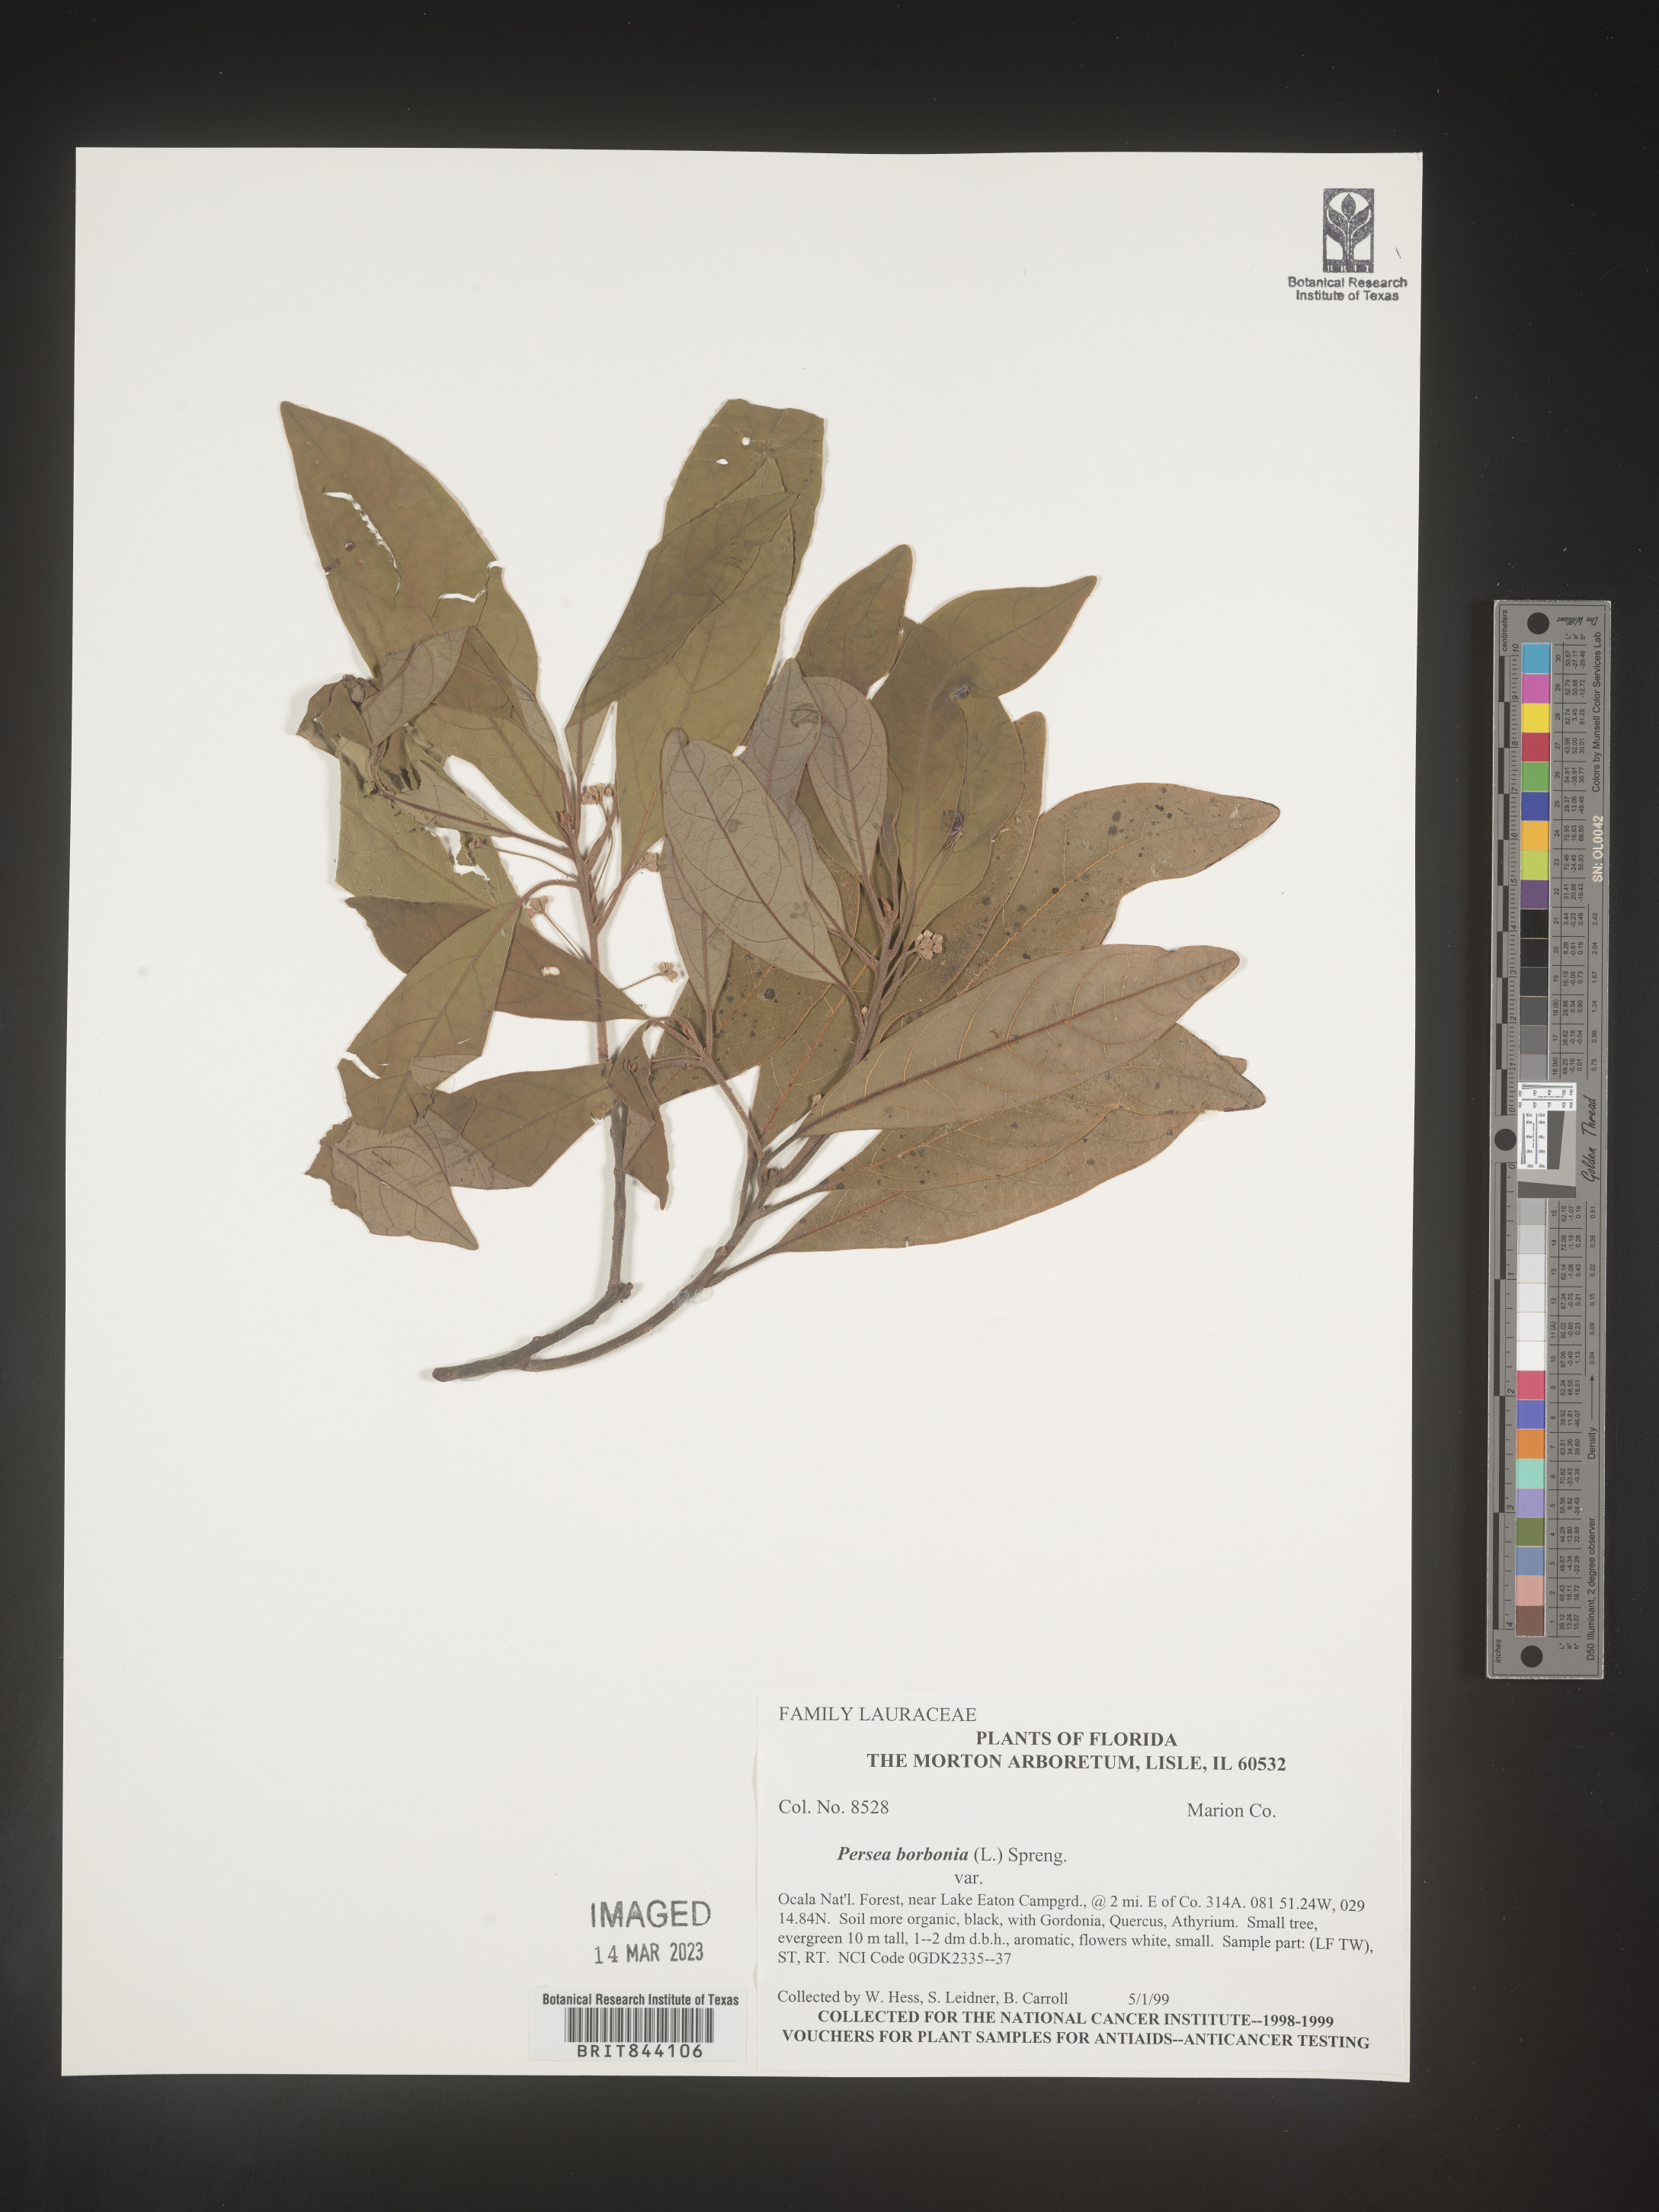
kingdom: Plantae
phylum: Tracheophyta
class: Magnoliopsida
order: Laurales
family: Lauraceae
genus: Persea
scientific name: Persea borbonia
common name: Redbay
